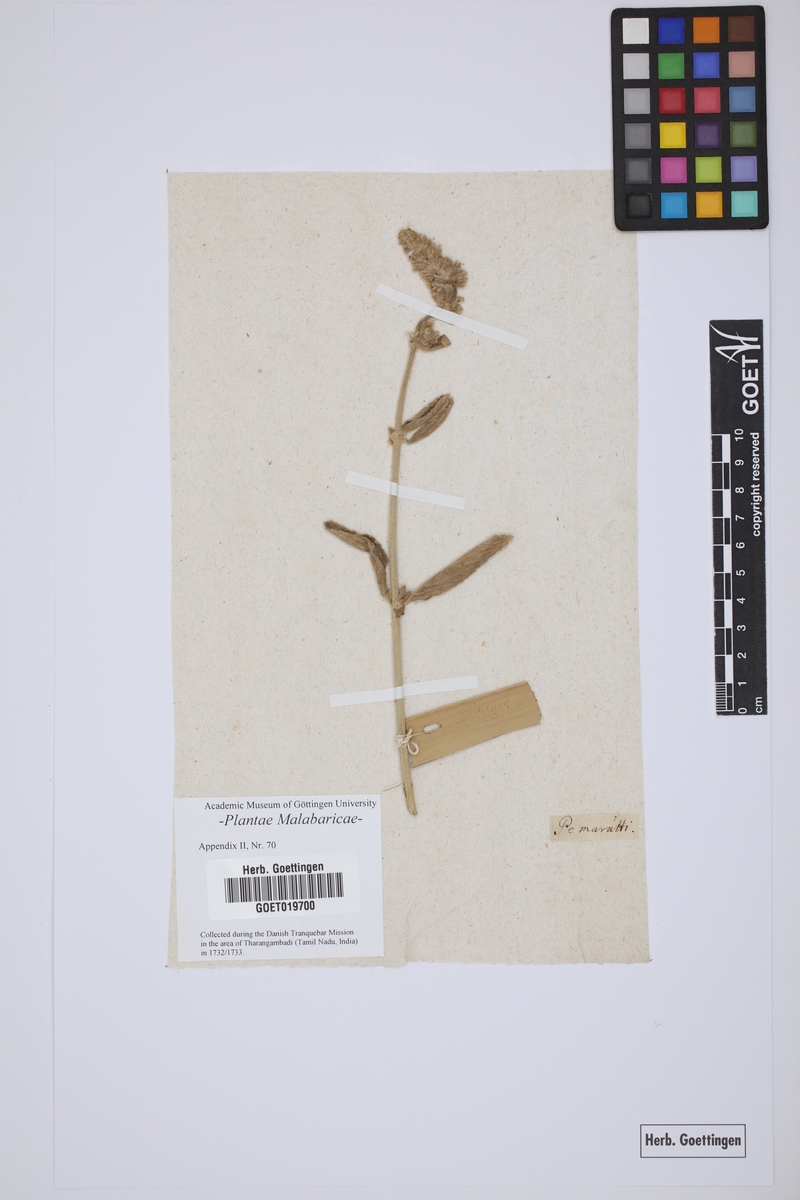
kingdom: Plantae
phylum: Tracheophyta
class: Magnoliopsida
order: Lamiales
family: Lamiaceae
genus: Anisomeles
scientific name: Anisomeles malabarica
